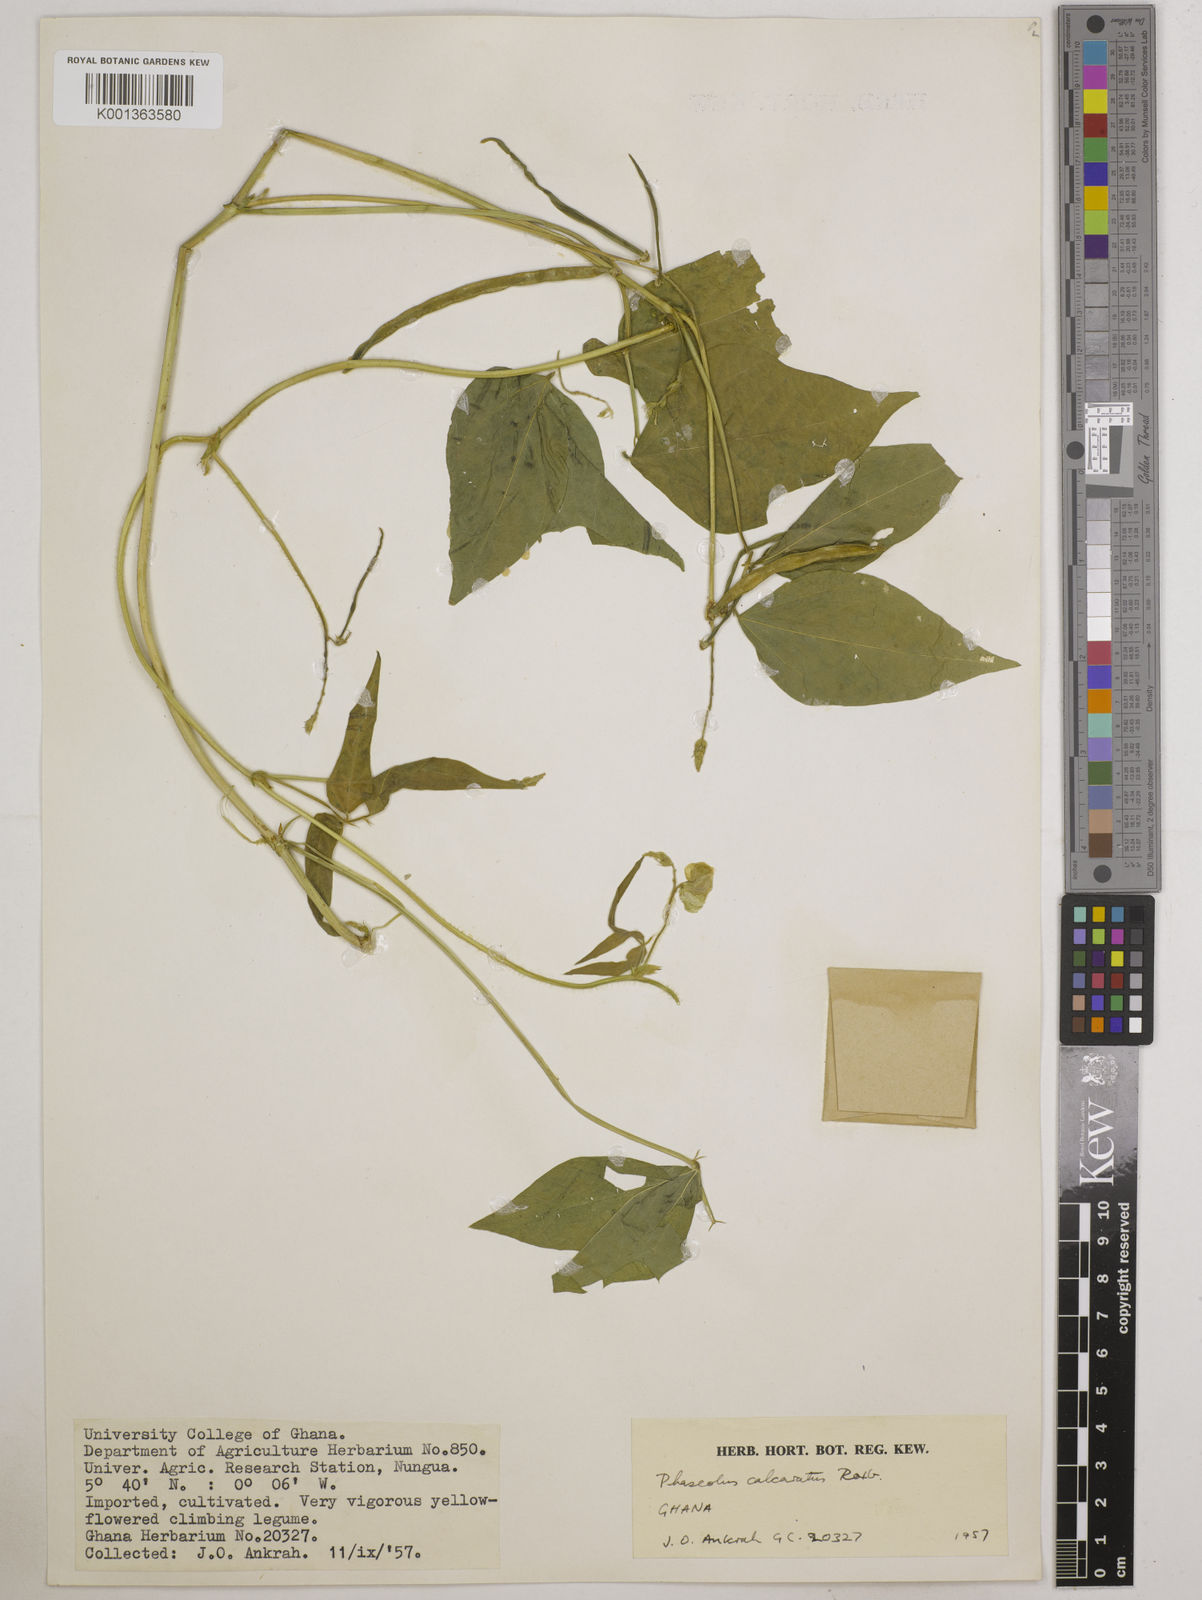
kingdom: Plantae
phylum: Tracheophyta
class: Magnoliopsida
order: Fabales
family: Fabaceae
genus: Vigna
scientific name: Vigna umbellata
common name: Oriental-bean
